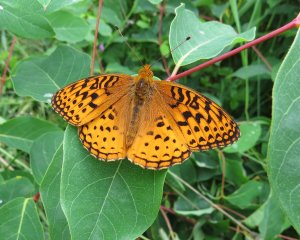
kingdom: Animalia
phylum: Arthropoda
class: Insecta
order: Lepidoptera
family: Nymphalidae
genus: Speyeria
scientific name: Speyeria aphrodite
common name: Aphrodite Fritillary
